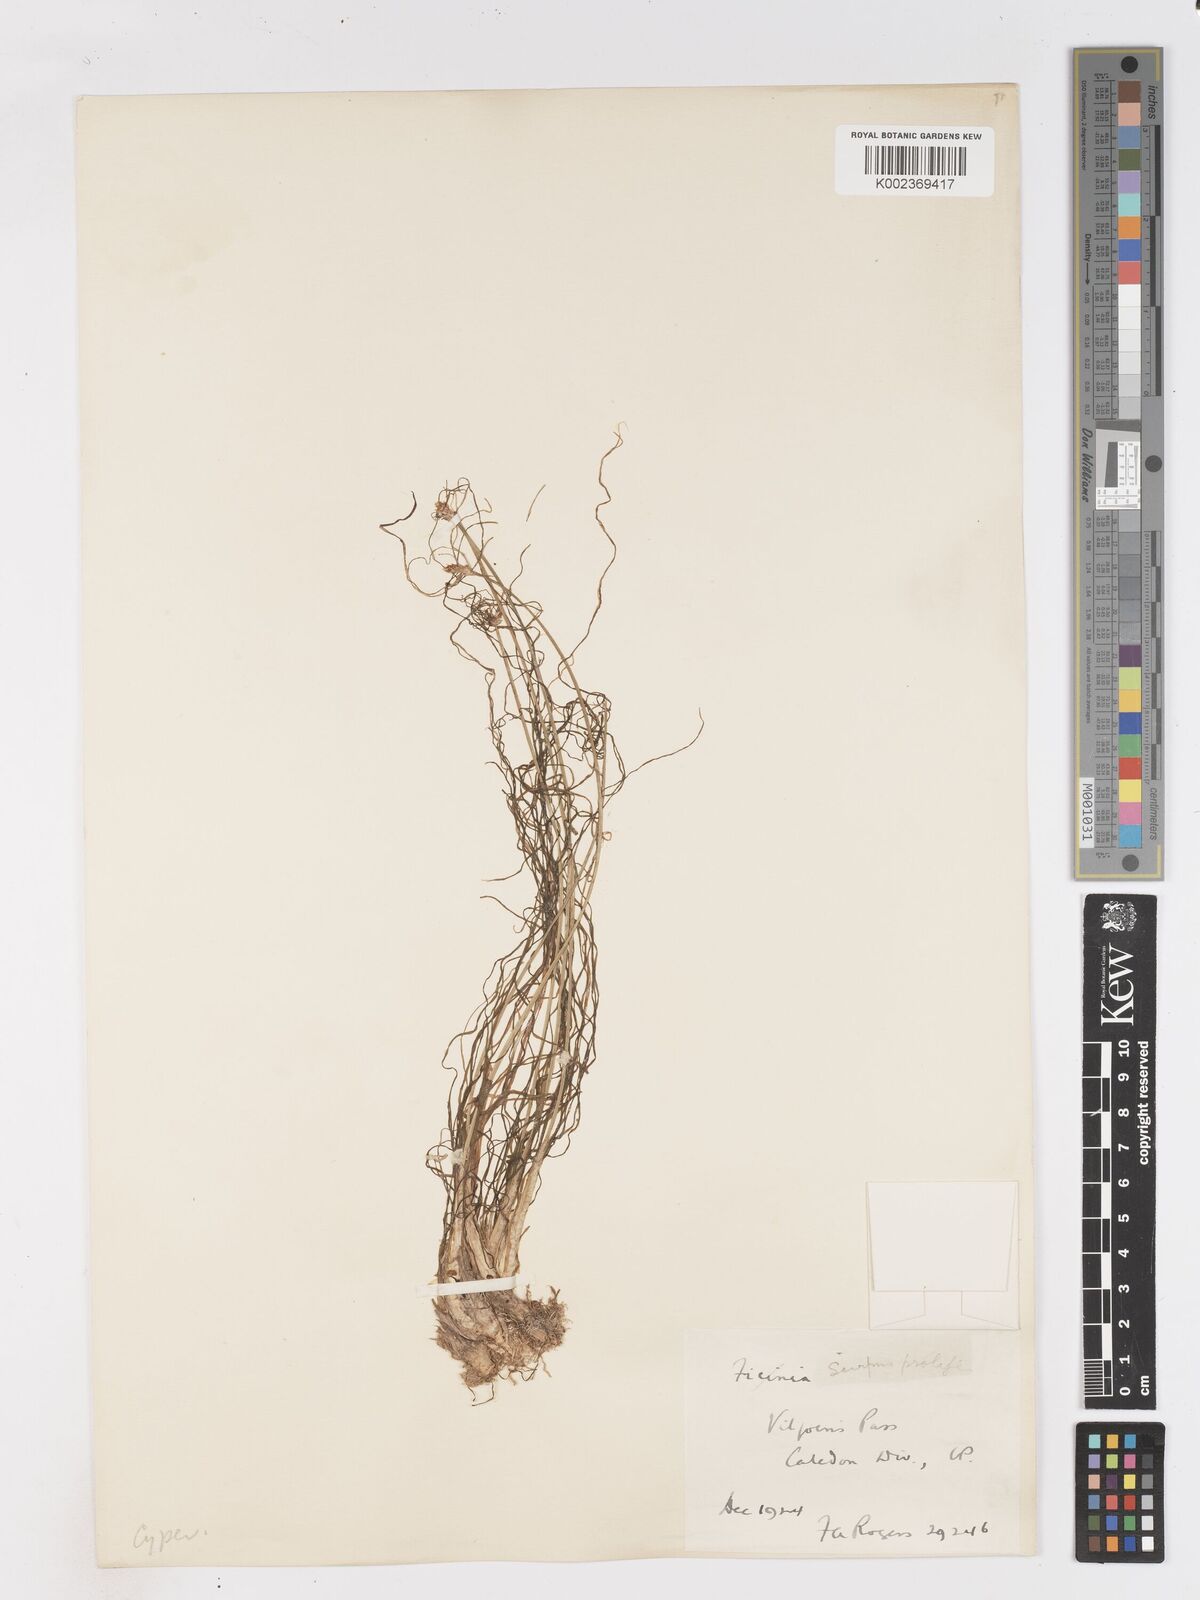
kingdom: Plantae
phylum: Tracheophyta
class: Liliopsida
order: Poales
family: Cyperaceae
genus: Isolepis
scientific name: Isolepis digitata
